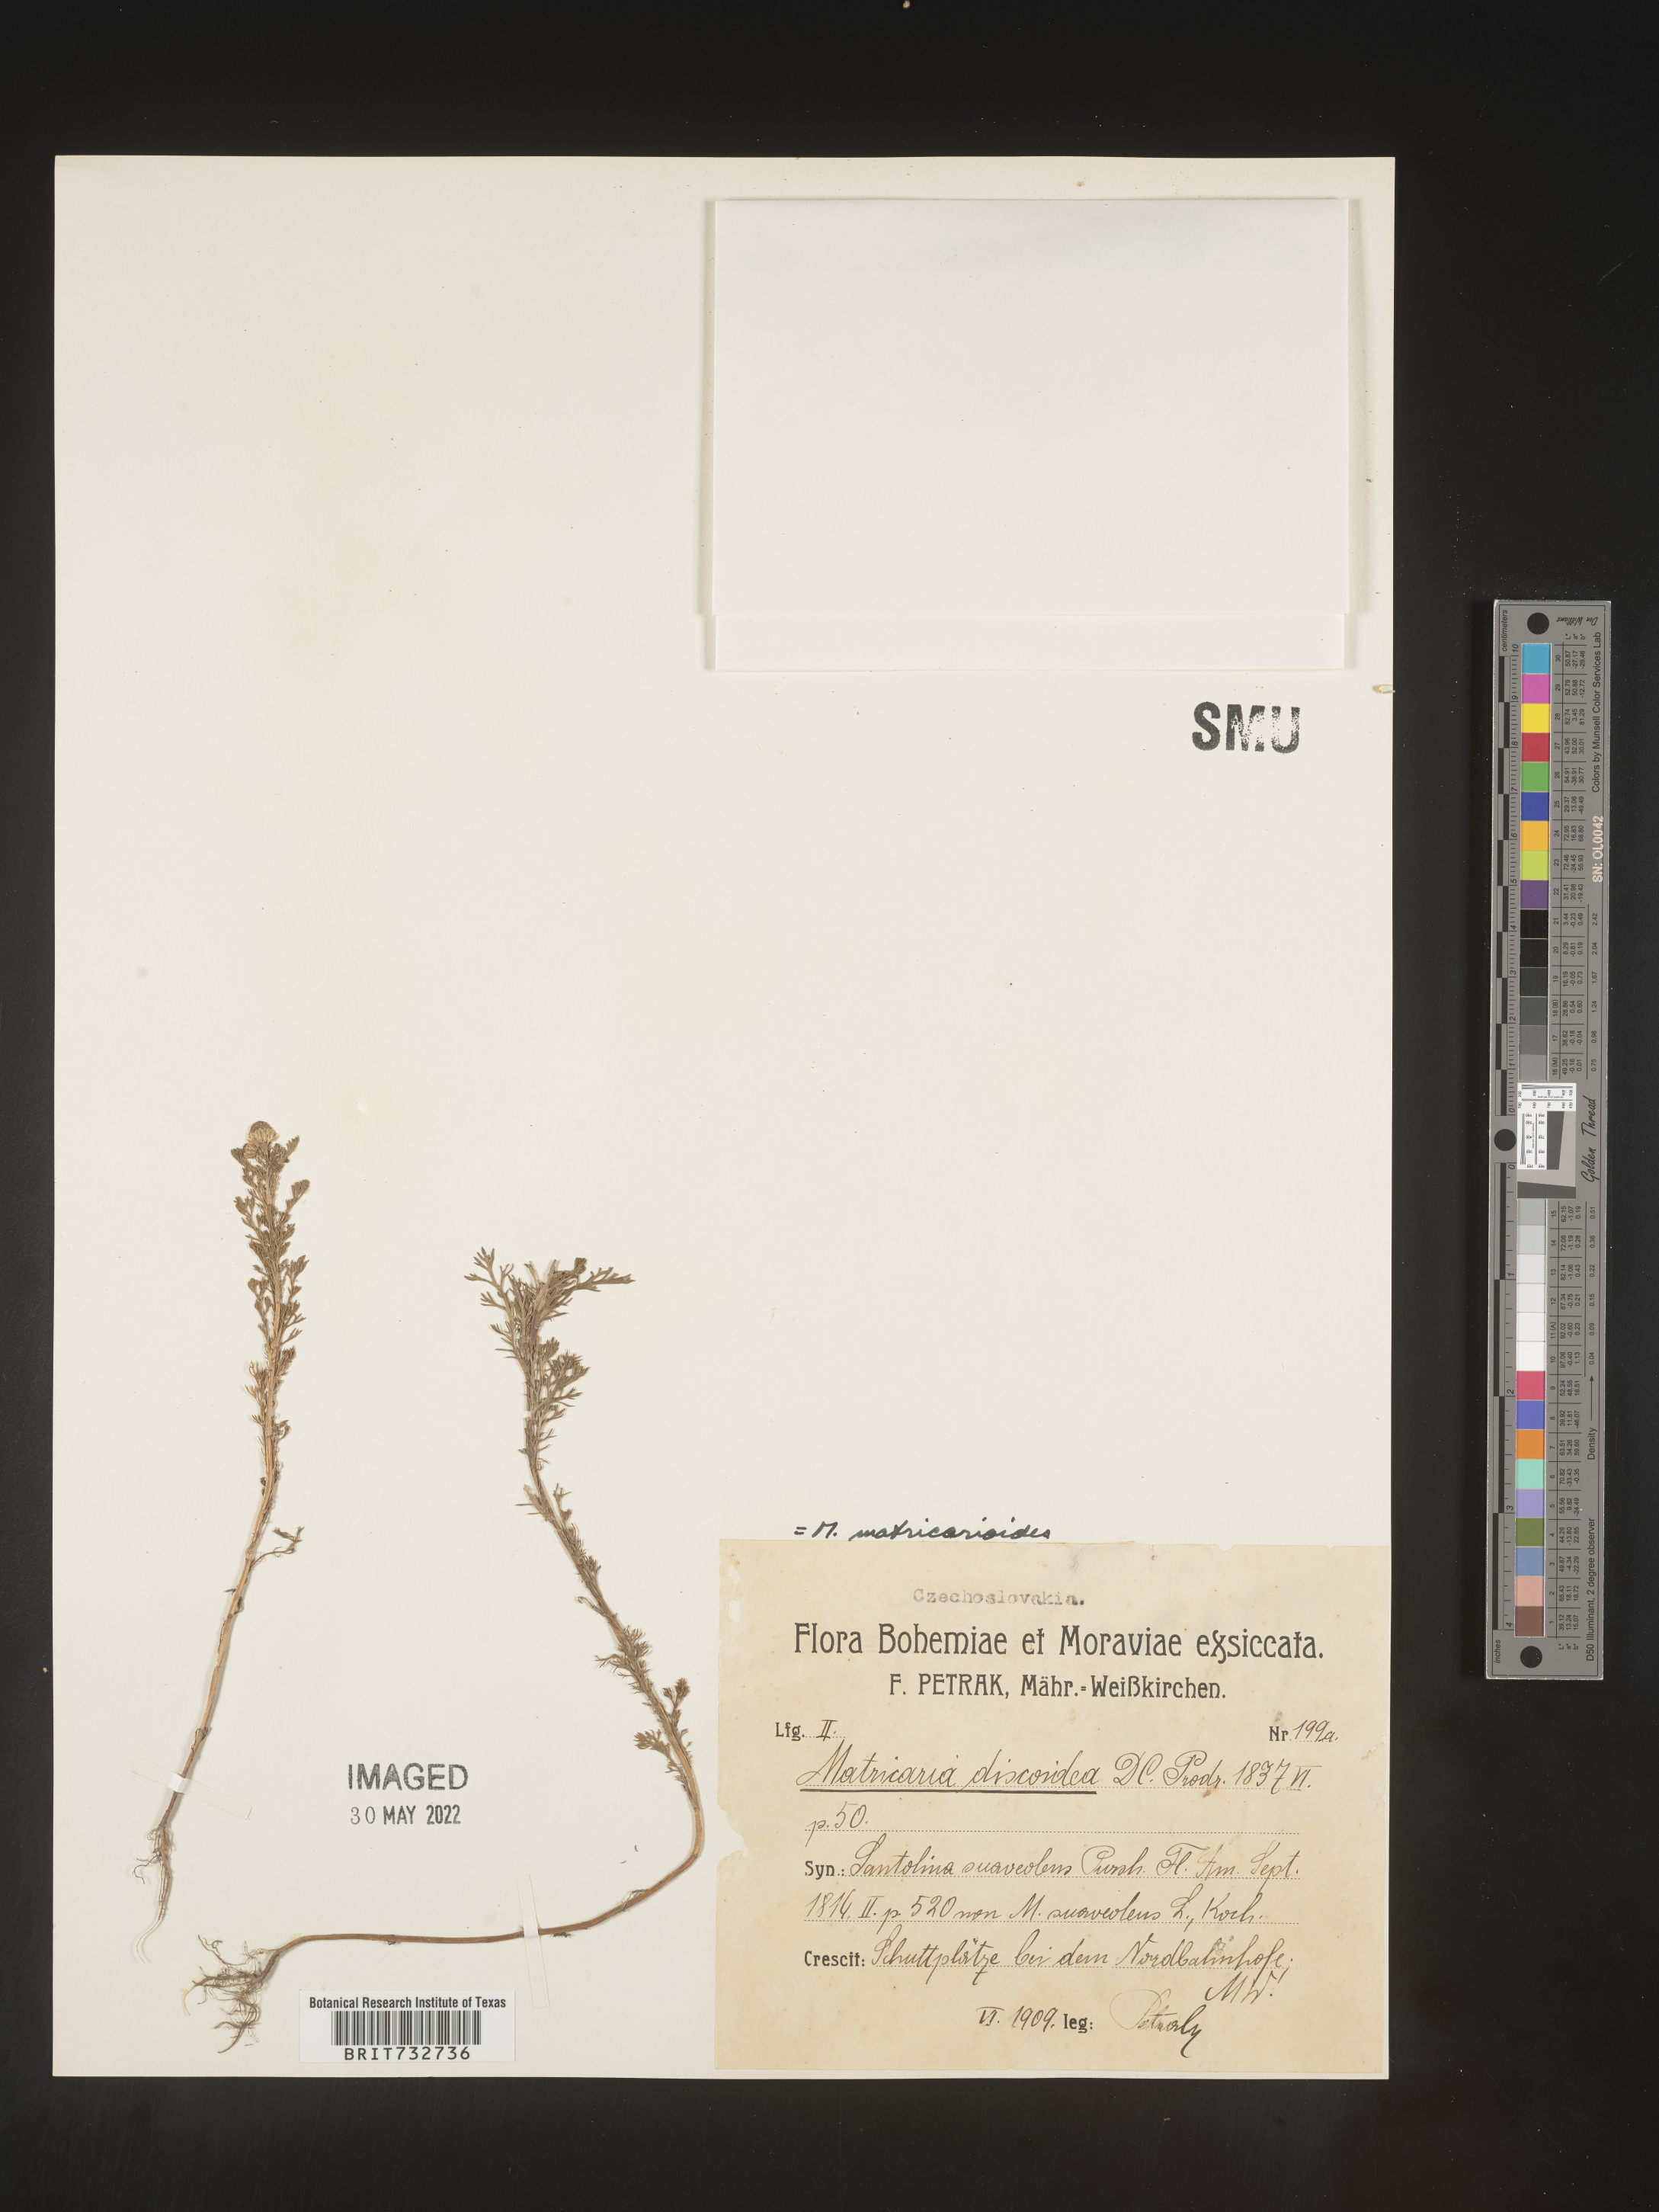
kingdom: Plantae
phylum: Tracheophyta
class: Magnoliopsida
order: Asterales
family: Asteraceae
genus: Matricaria
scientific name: Matricaria
